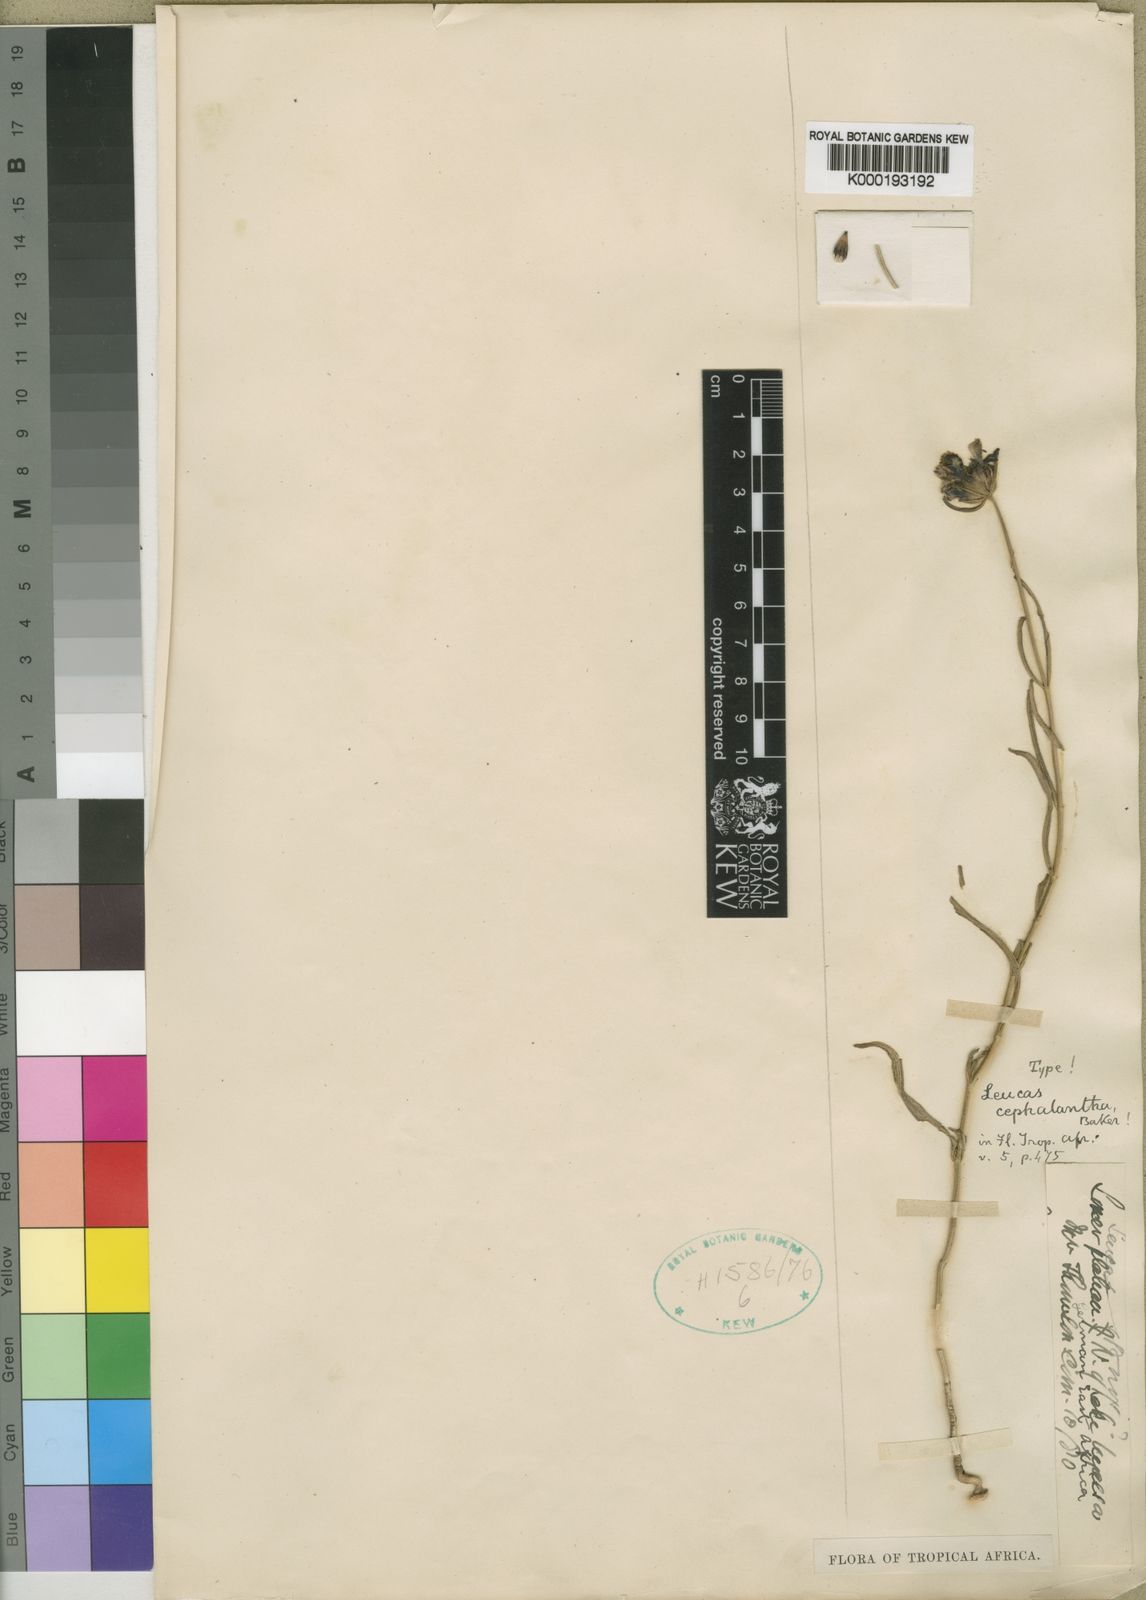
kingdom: Plantae
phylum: Tracheophyta
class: Magnoliopsida
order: Lamiales
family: Lamiaceae
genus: Leucas
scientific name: Leucas cephalantha
